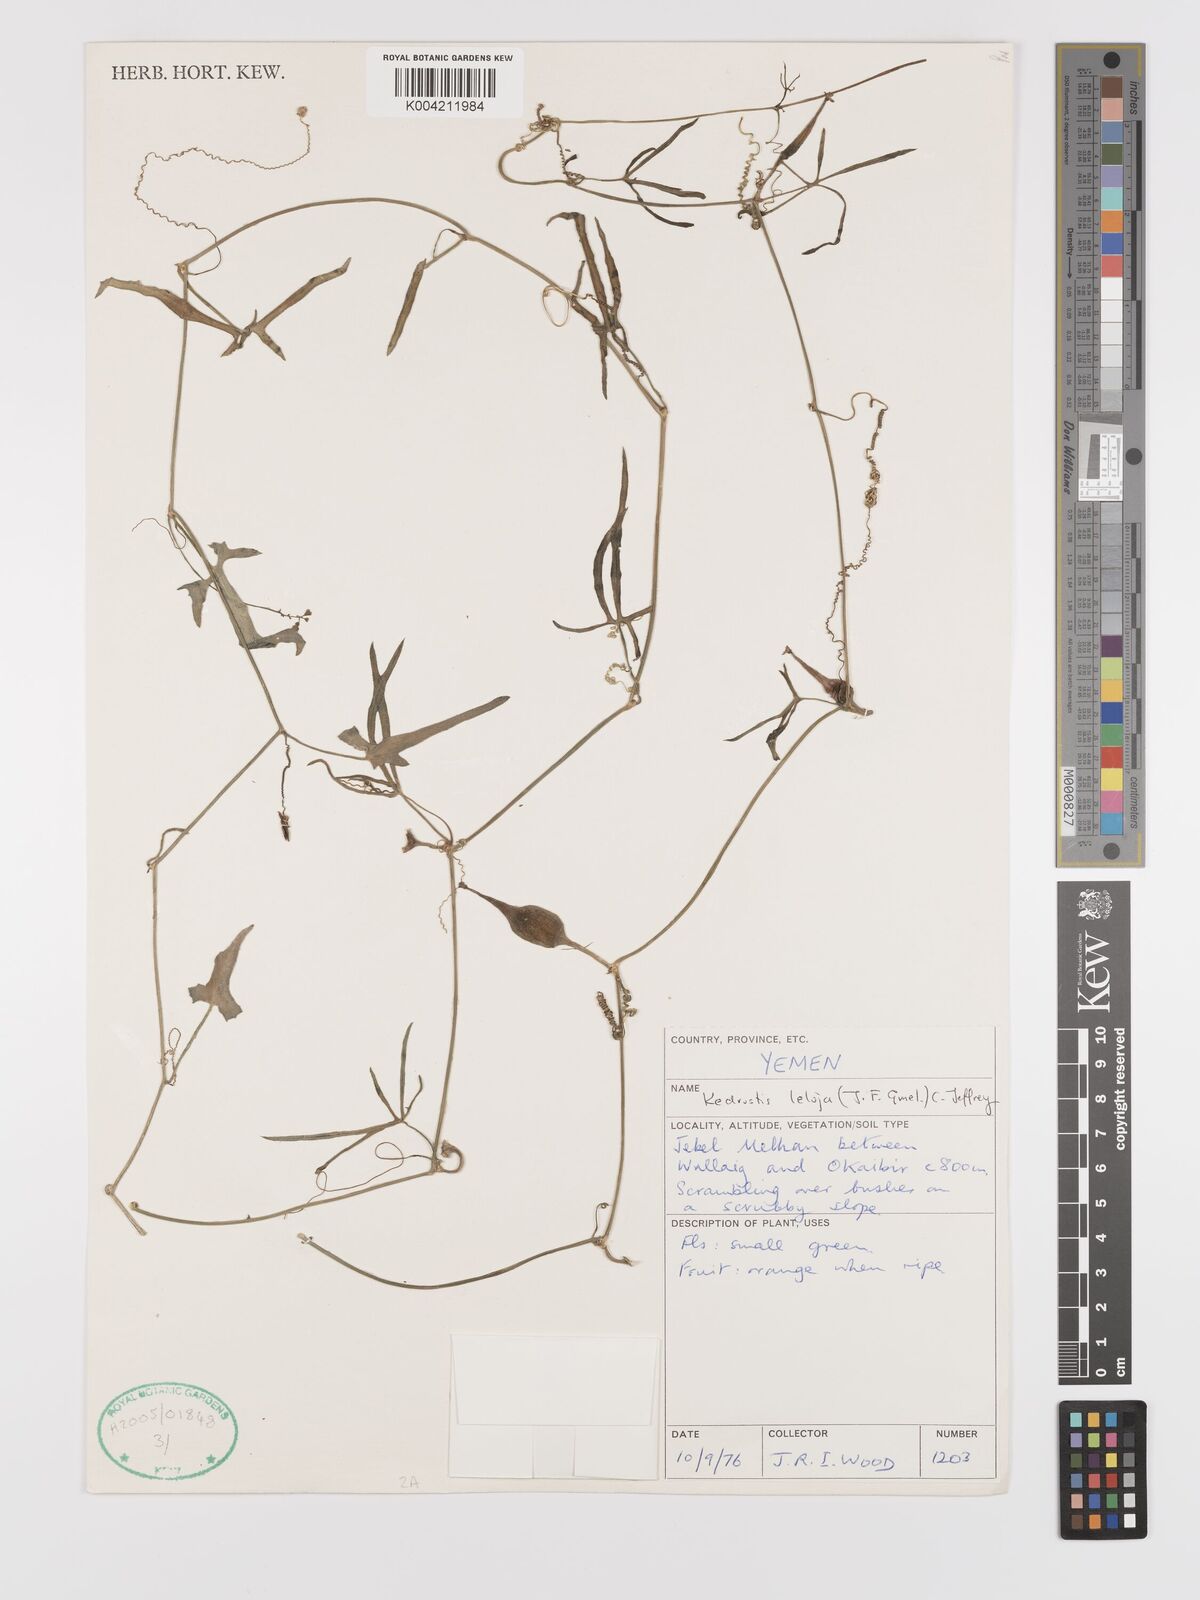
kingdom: Plantae
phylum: Tracheophyta
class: Magnoliopsida
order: Cucurbitales
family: Cucurbitaceae
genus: Kedrostis
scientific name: Kedrostis leloja
